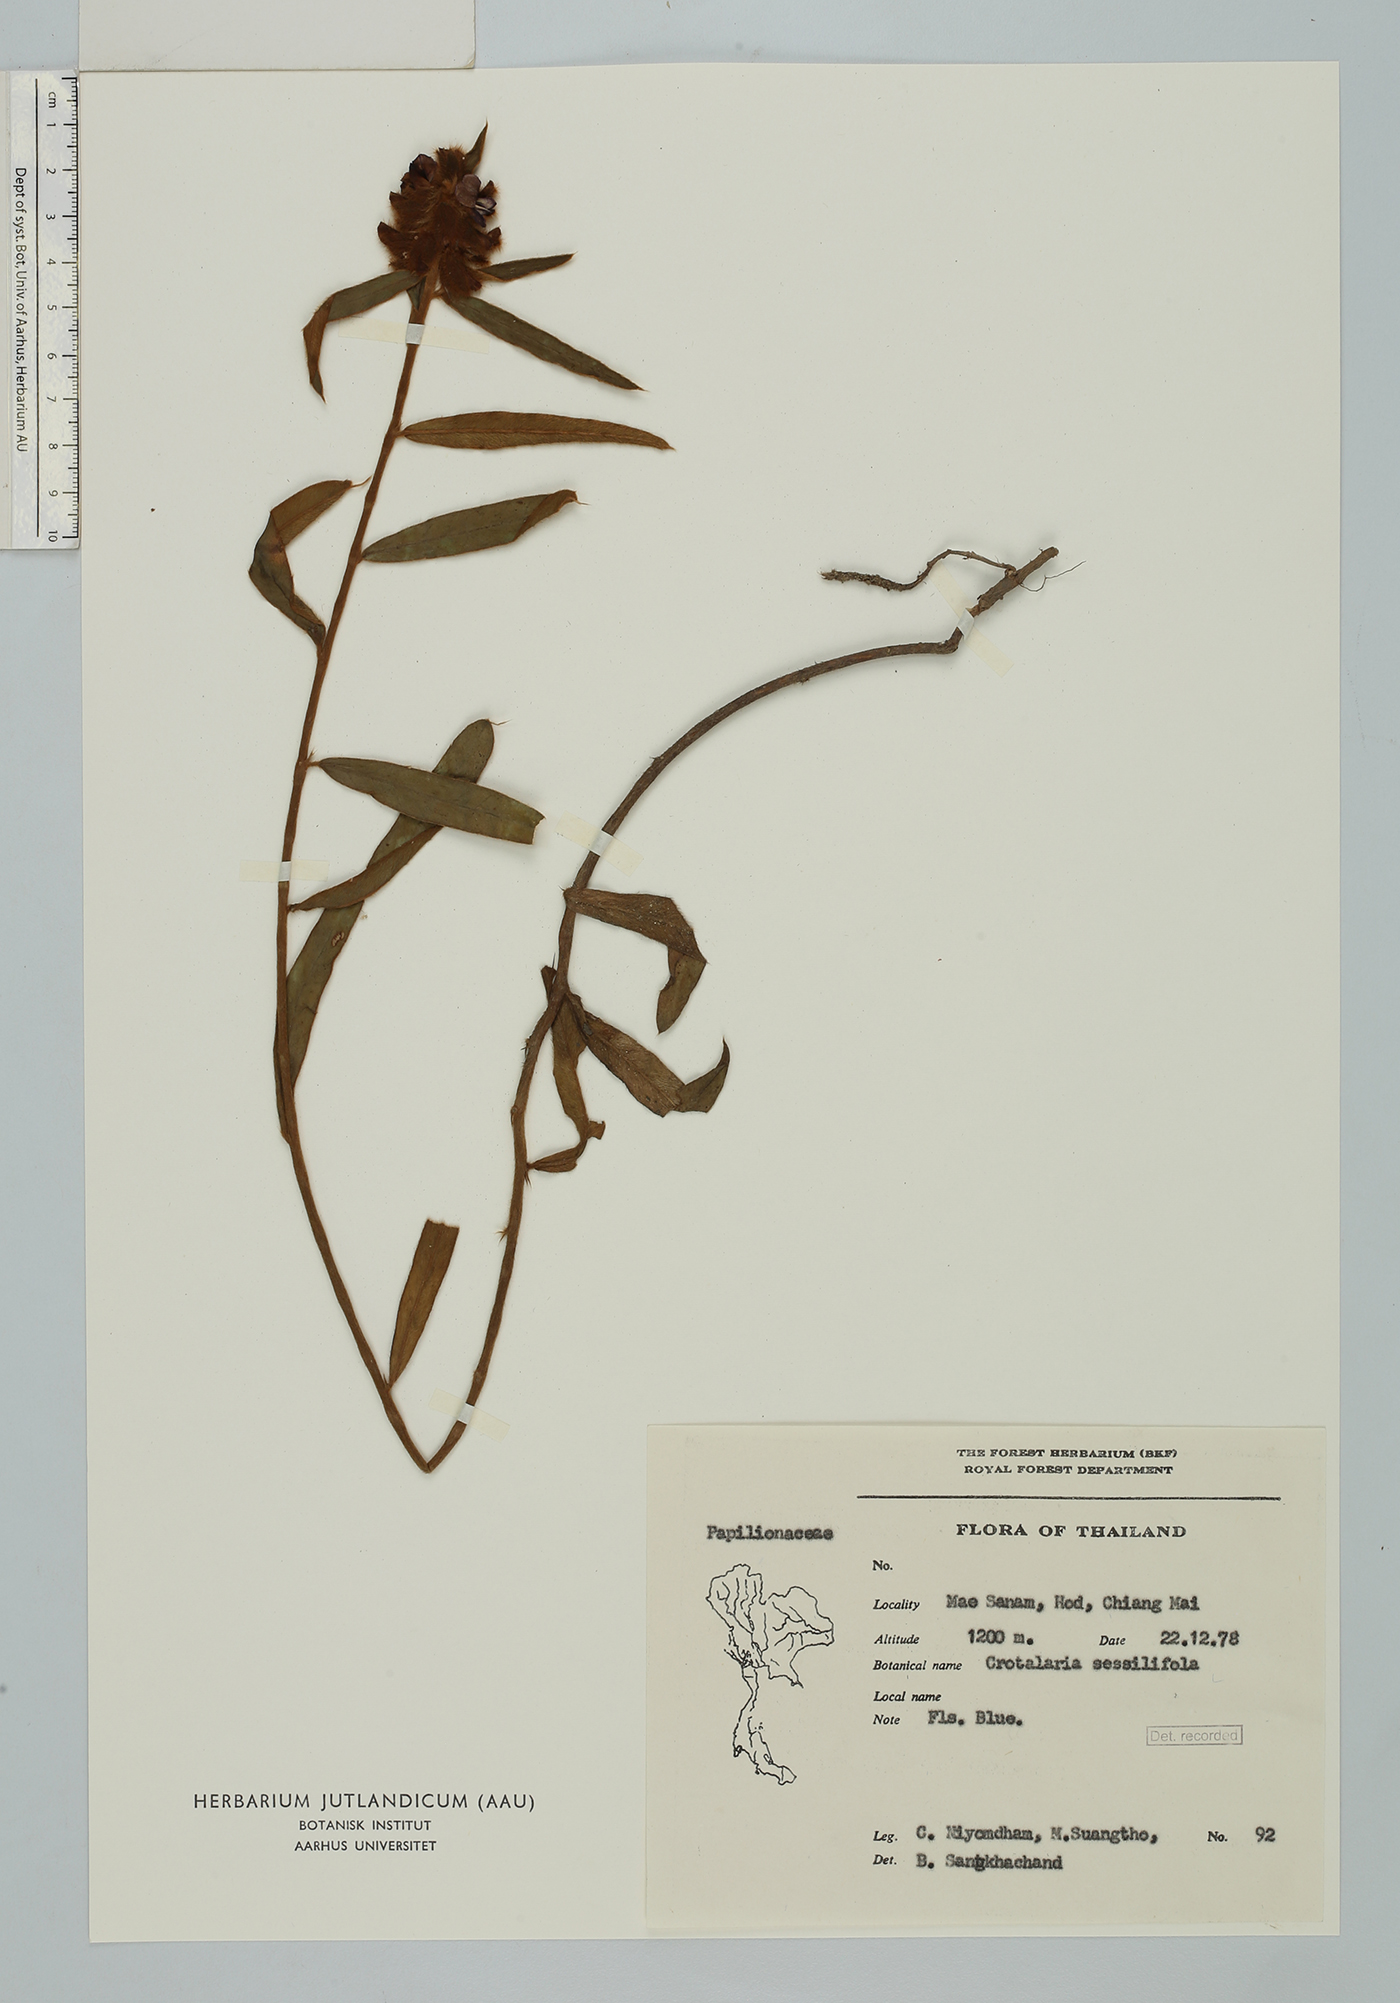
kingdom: Plantae
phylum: Tracheophyta
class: Magnoliopsida
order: Fabales
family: Fabaceae
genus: Crotalaria
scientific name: Crotalaria sessiliflora
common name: Rattlebox
